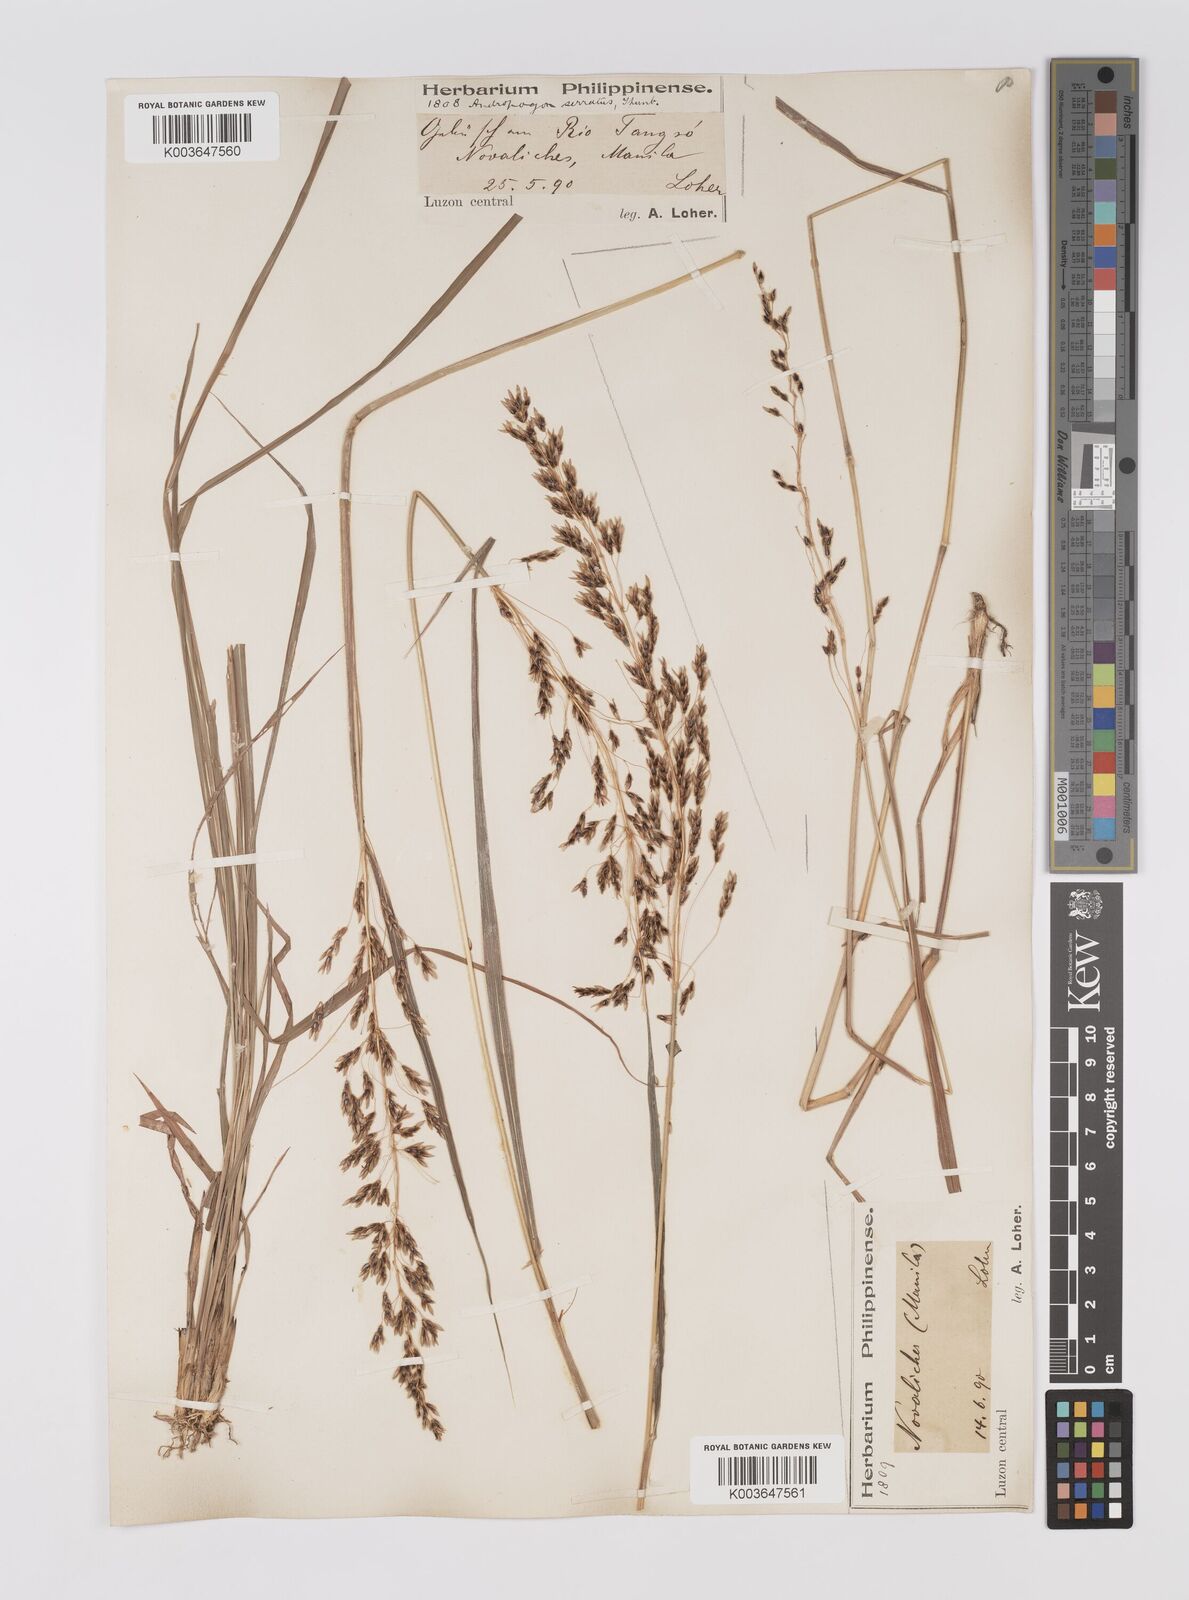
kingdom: Plantae
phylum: Tracheophyta
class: Liliopsida
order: Poales
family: Poaceae
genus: Sorghum
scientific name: Sorghum nitidum
